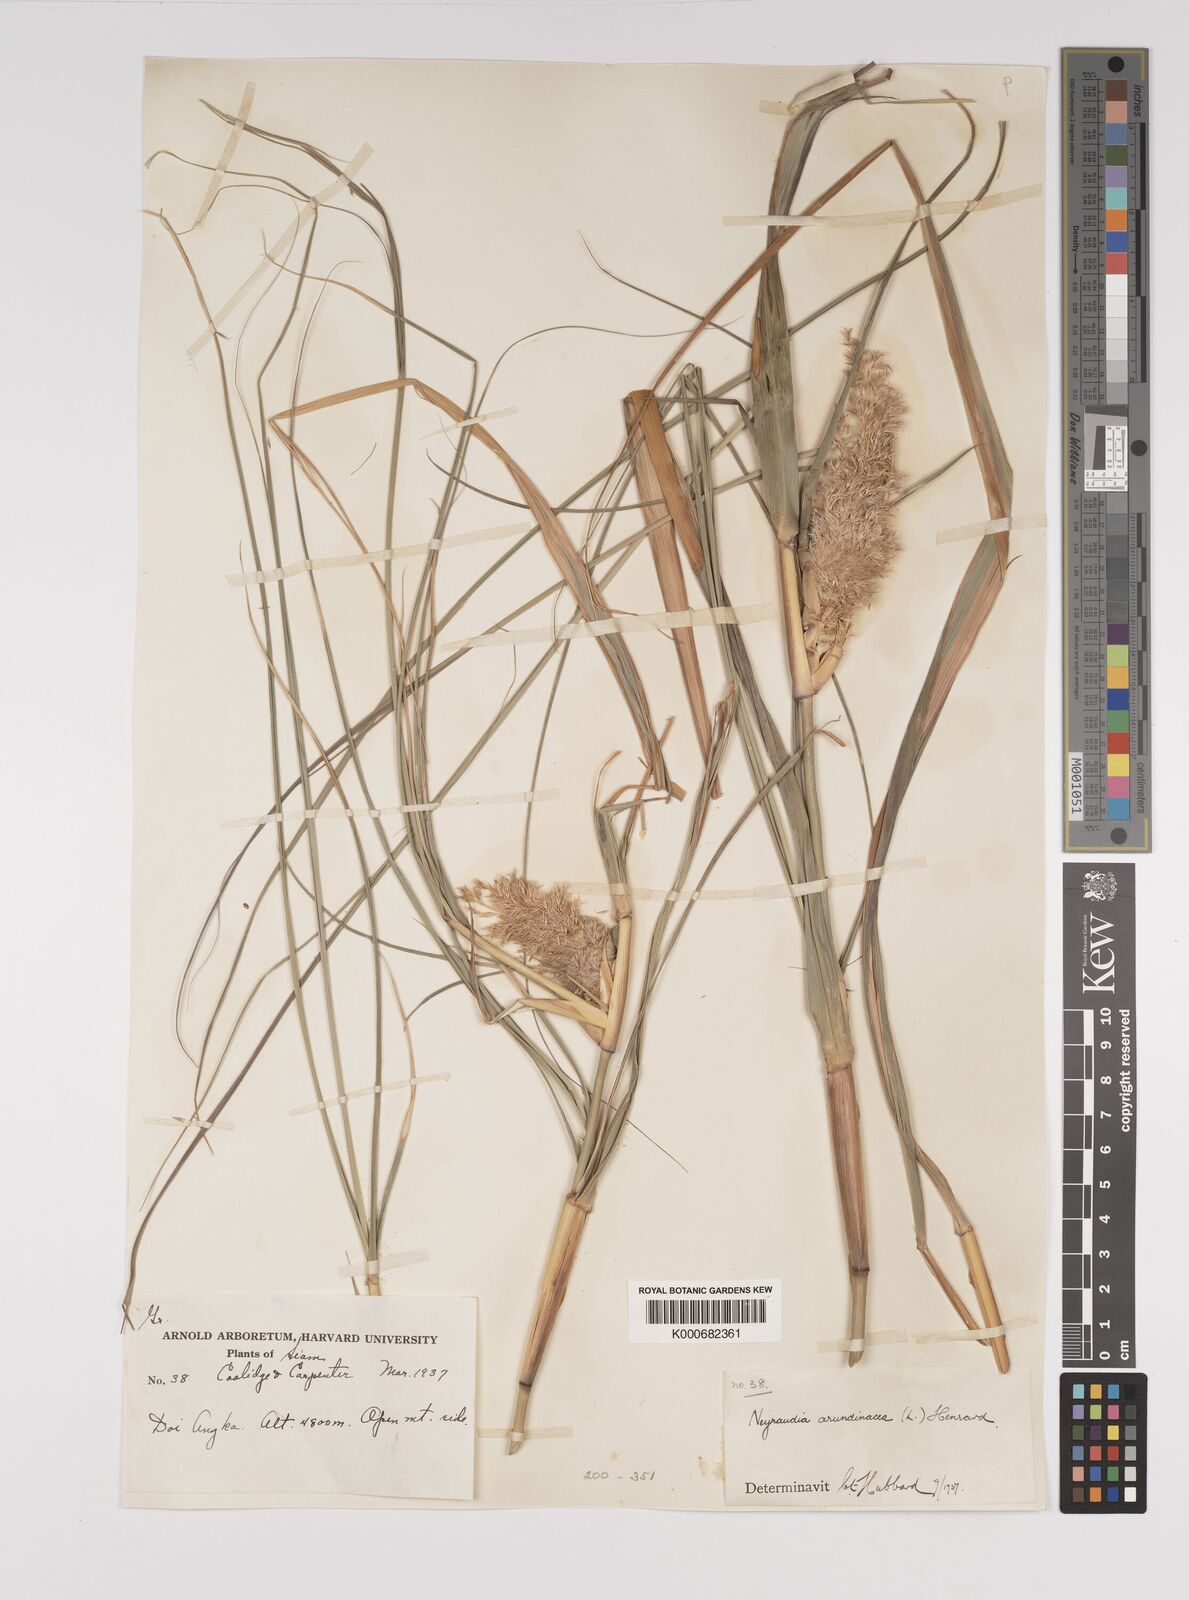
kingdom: Plantae
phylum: Tracheophyta
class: Liliopsida
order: Poales
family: Poaceae
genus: Neyraudia
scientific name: Neyraudia reynaudiana
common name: Silkreed
